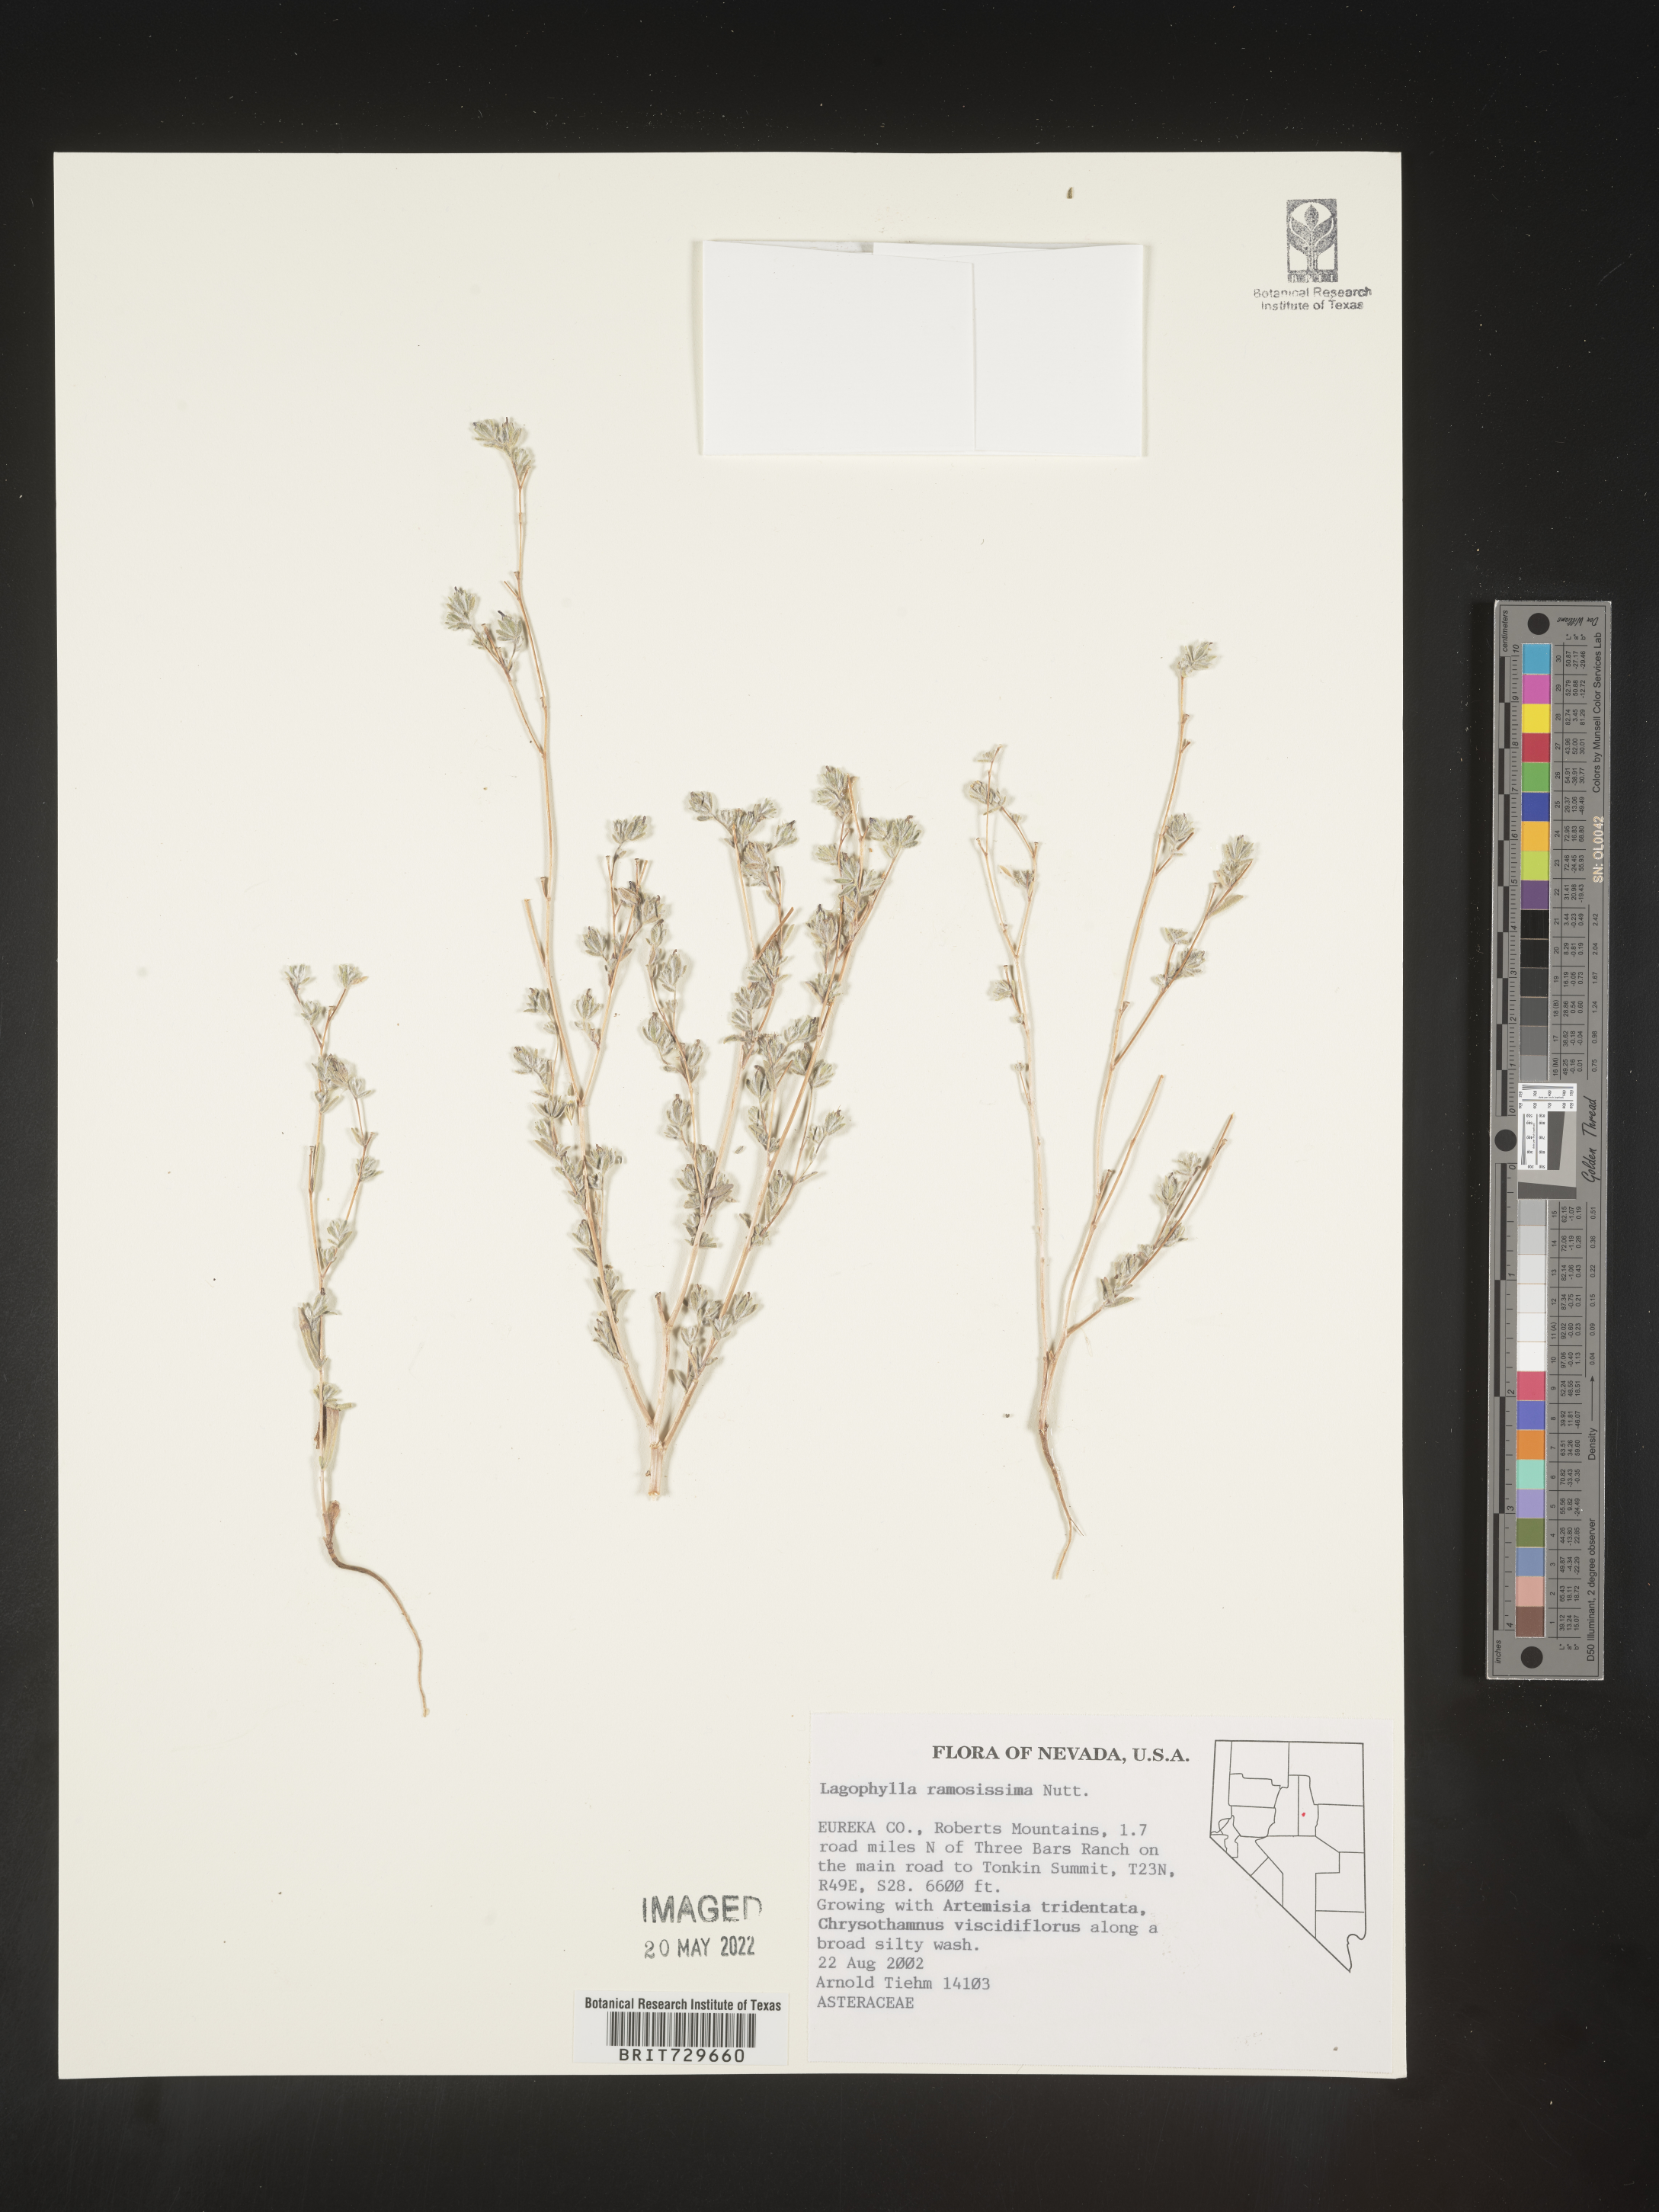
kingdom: Plantae
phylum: Tracheophyta
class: Magnoliopsida
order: Asterales
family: Asteraceae
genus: Lagophylla
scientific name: Lagophylla
